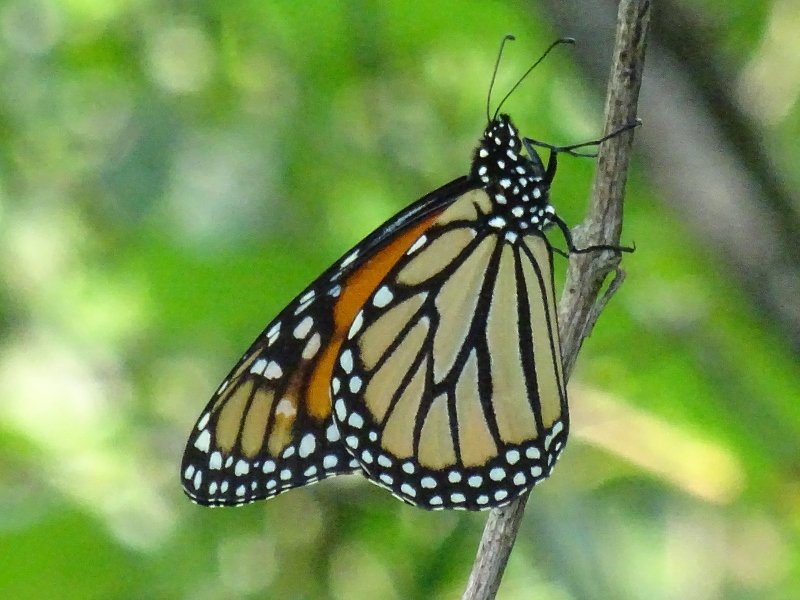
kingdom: Animalia
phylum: Arthropoda
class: Insecta
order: Lepidoptera
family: Nymphalidae
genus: Danaus
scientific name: Danaus plexippus
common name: Monarch
